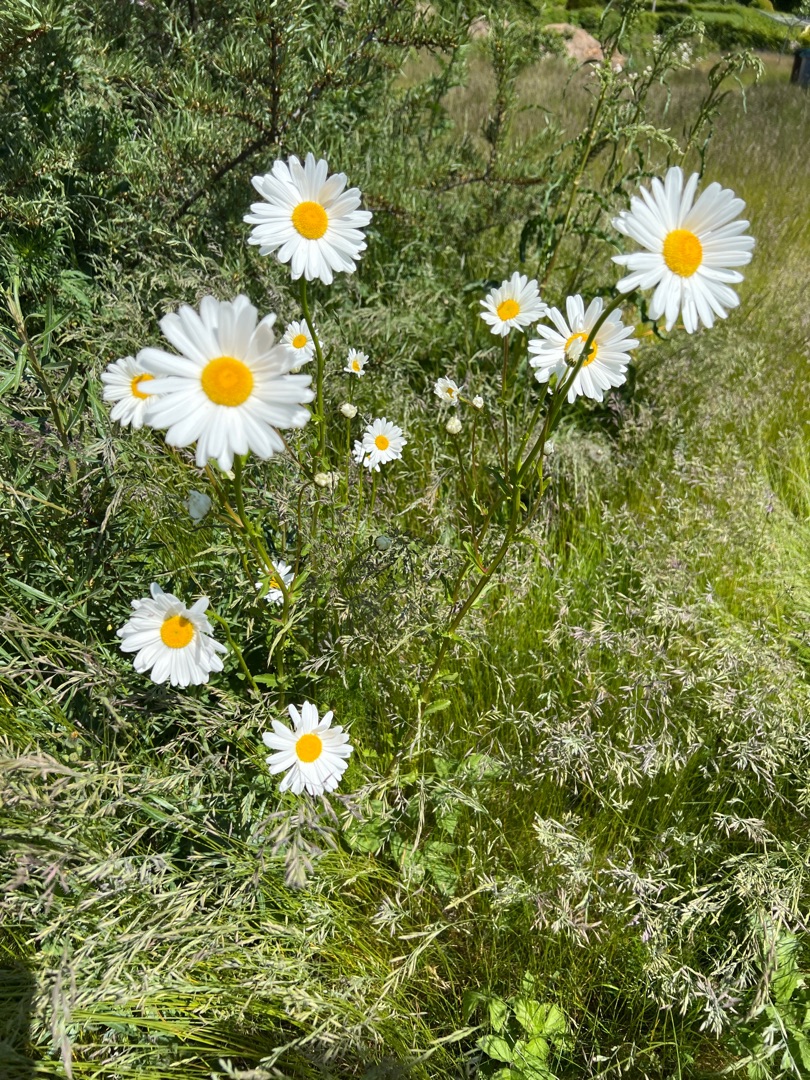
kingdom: Plantae
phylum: Tracheophyta
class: Magnoliopsida
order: Asterales
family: Asteraceae
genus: Leucanthemum
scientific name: Leucanthemum vulgare
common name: Hvid okseøje
